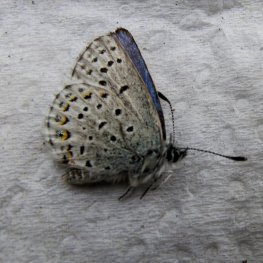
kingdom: Animalia
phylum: Arthropoda
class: Insecta
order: Lepidoptera
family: Lycaenidae
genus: Lycaeides
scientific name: Lycaeides idas
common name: Northern Blue
